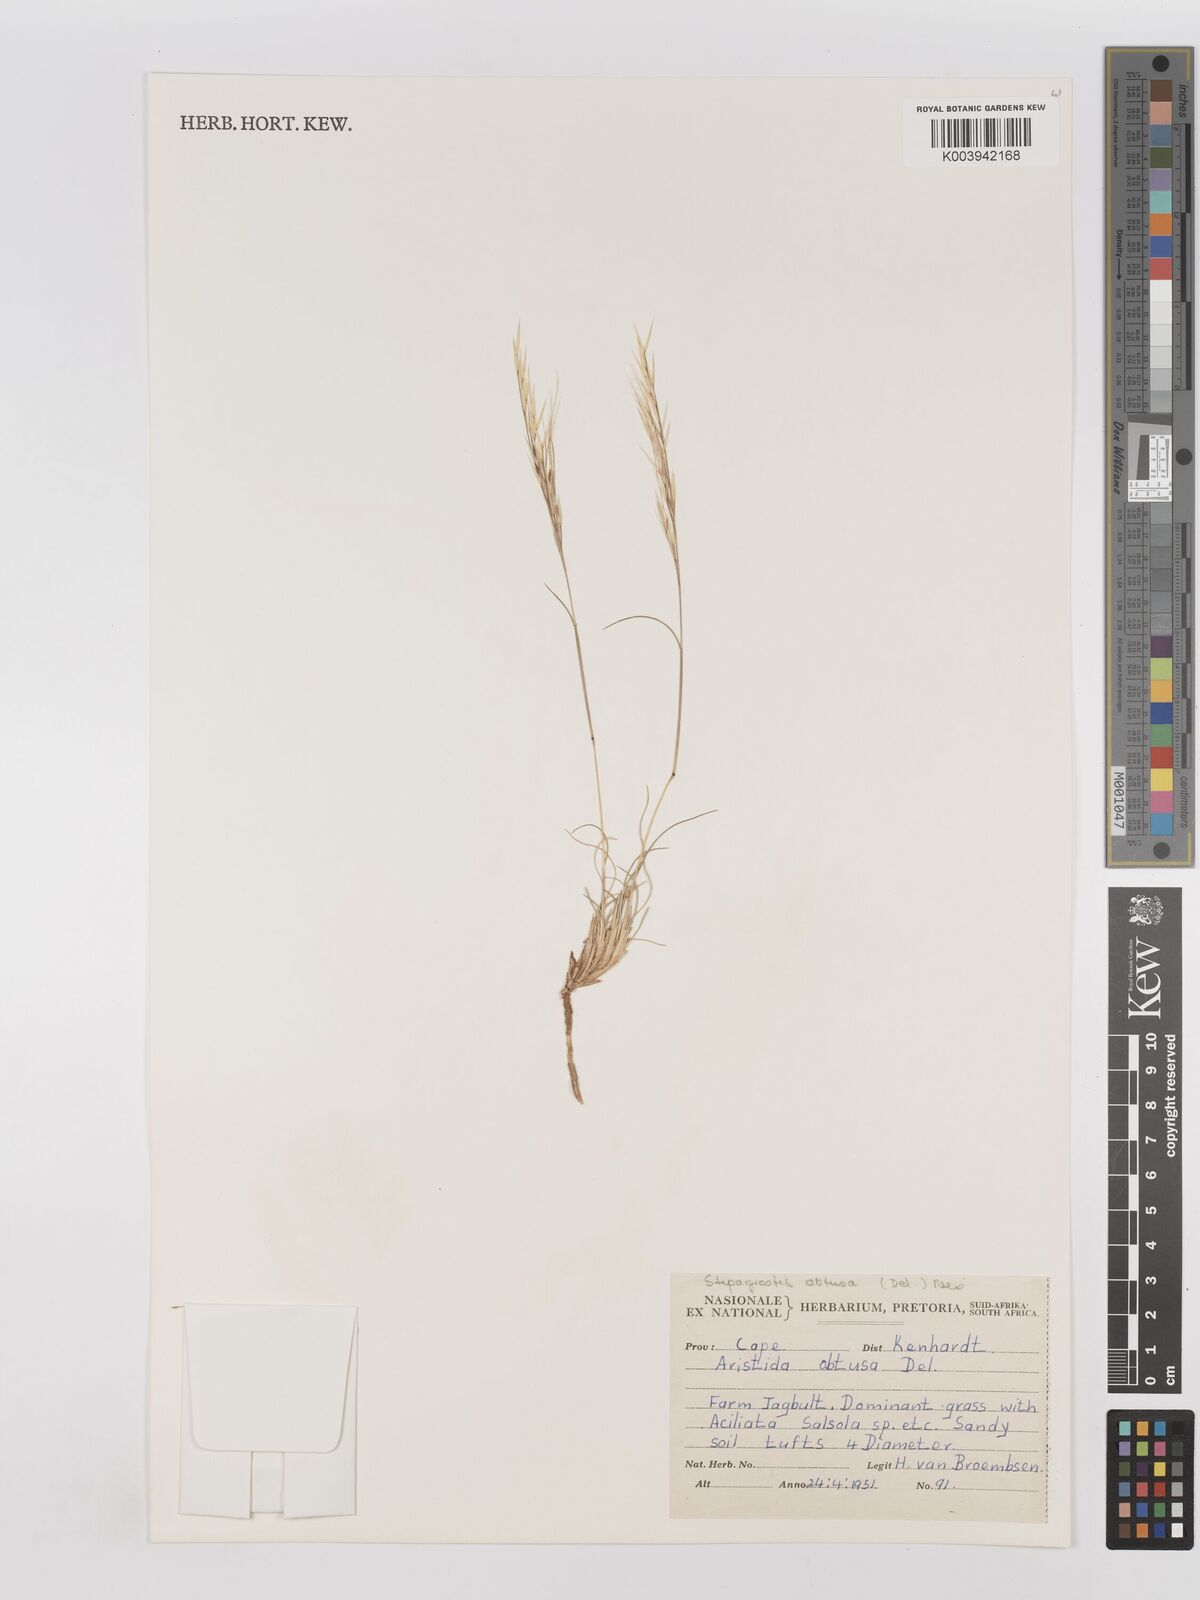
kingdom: Plantae
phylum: Tracheophyta
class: Liliopsida
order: Poales
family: Poaceae
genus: Stipagrostis
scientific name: Stipagrostis obtusa
